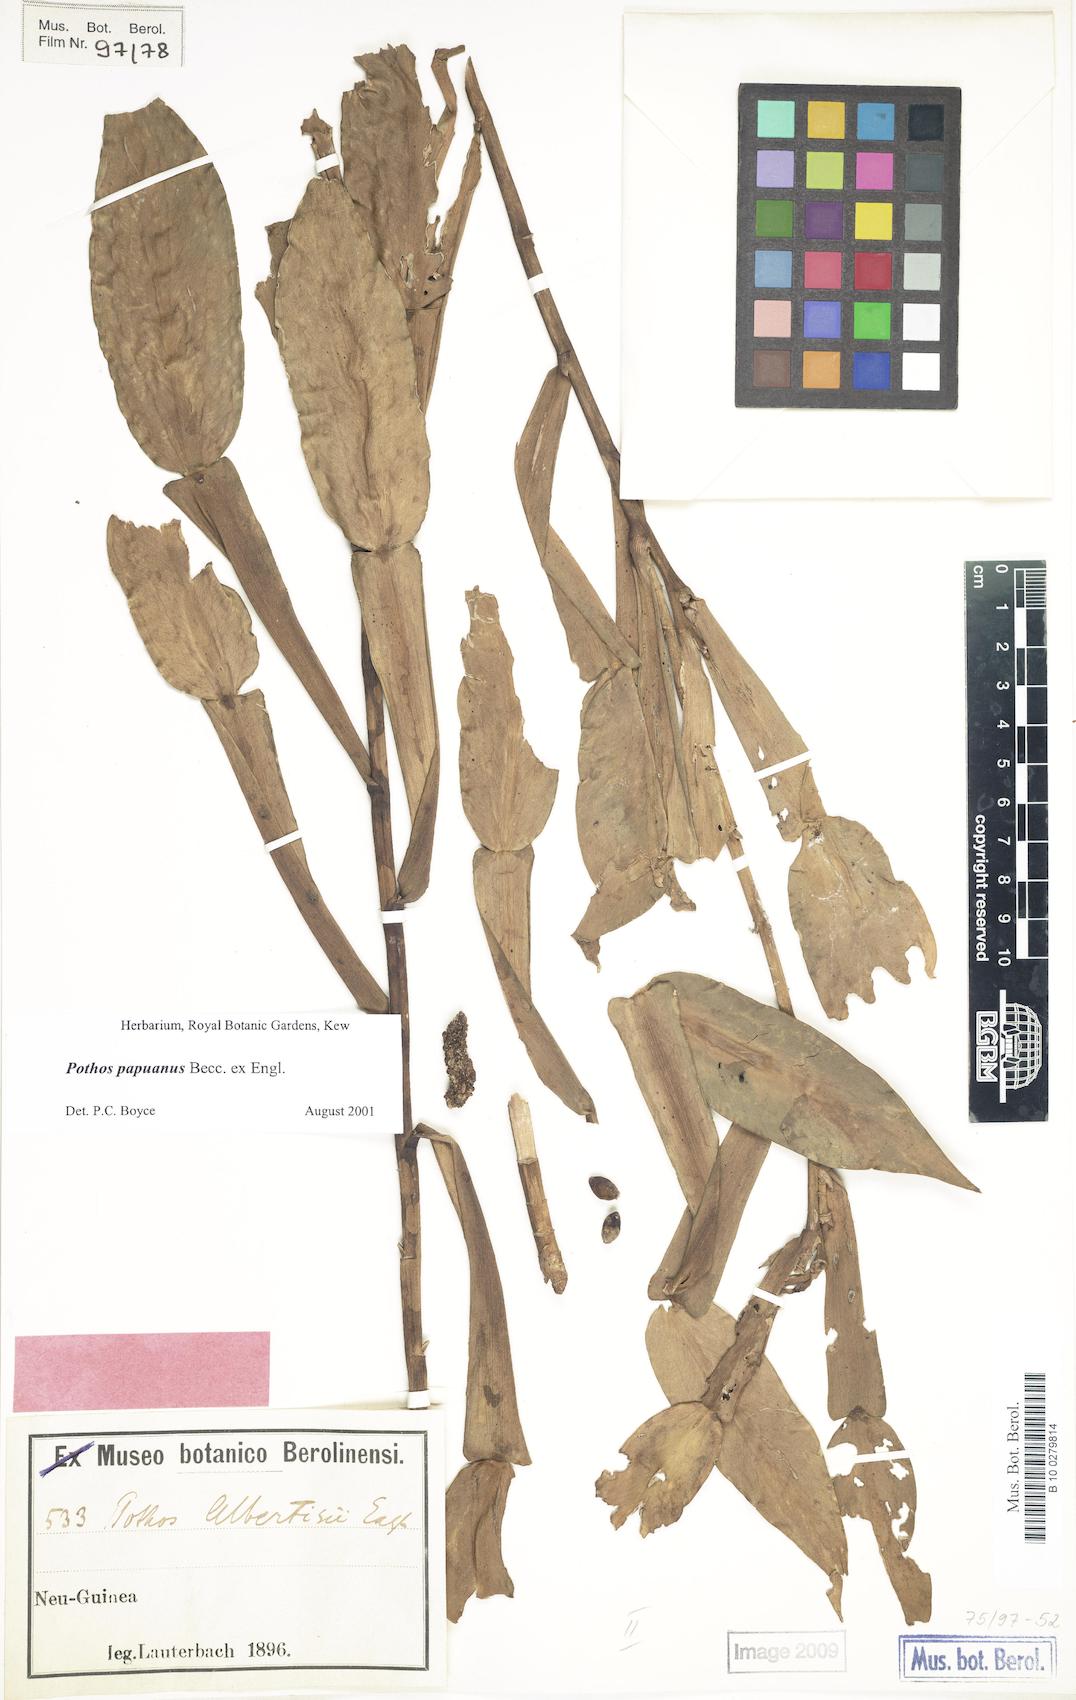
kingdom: Plantae
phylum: Tracheophyta
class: Liliopsida
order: Alismatales
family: Araceae
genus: Pothos
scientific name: Pothos papuanus
